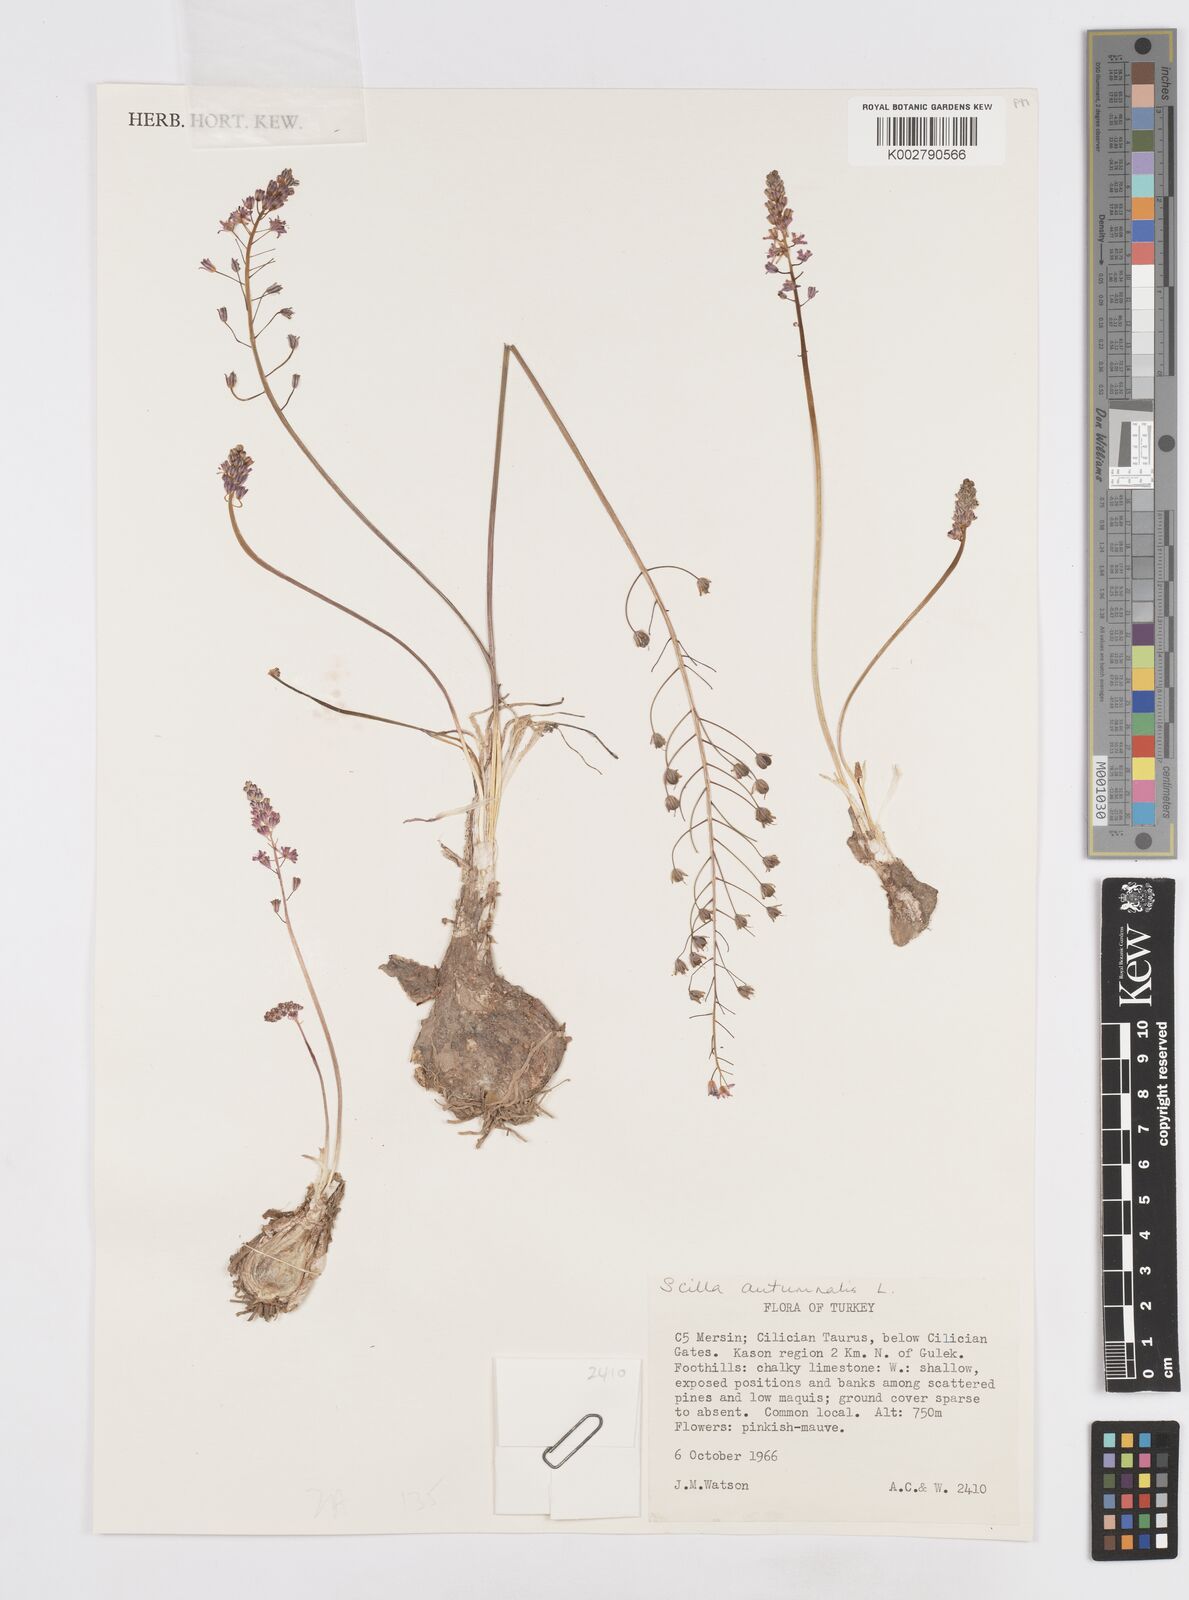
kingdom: Plantae
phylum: Tracheophyta
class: Liliopsida
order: Asparagales
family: Asparagaceae
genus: Prospero
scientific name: Prospero autumnale
